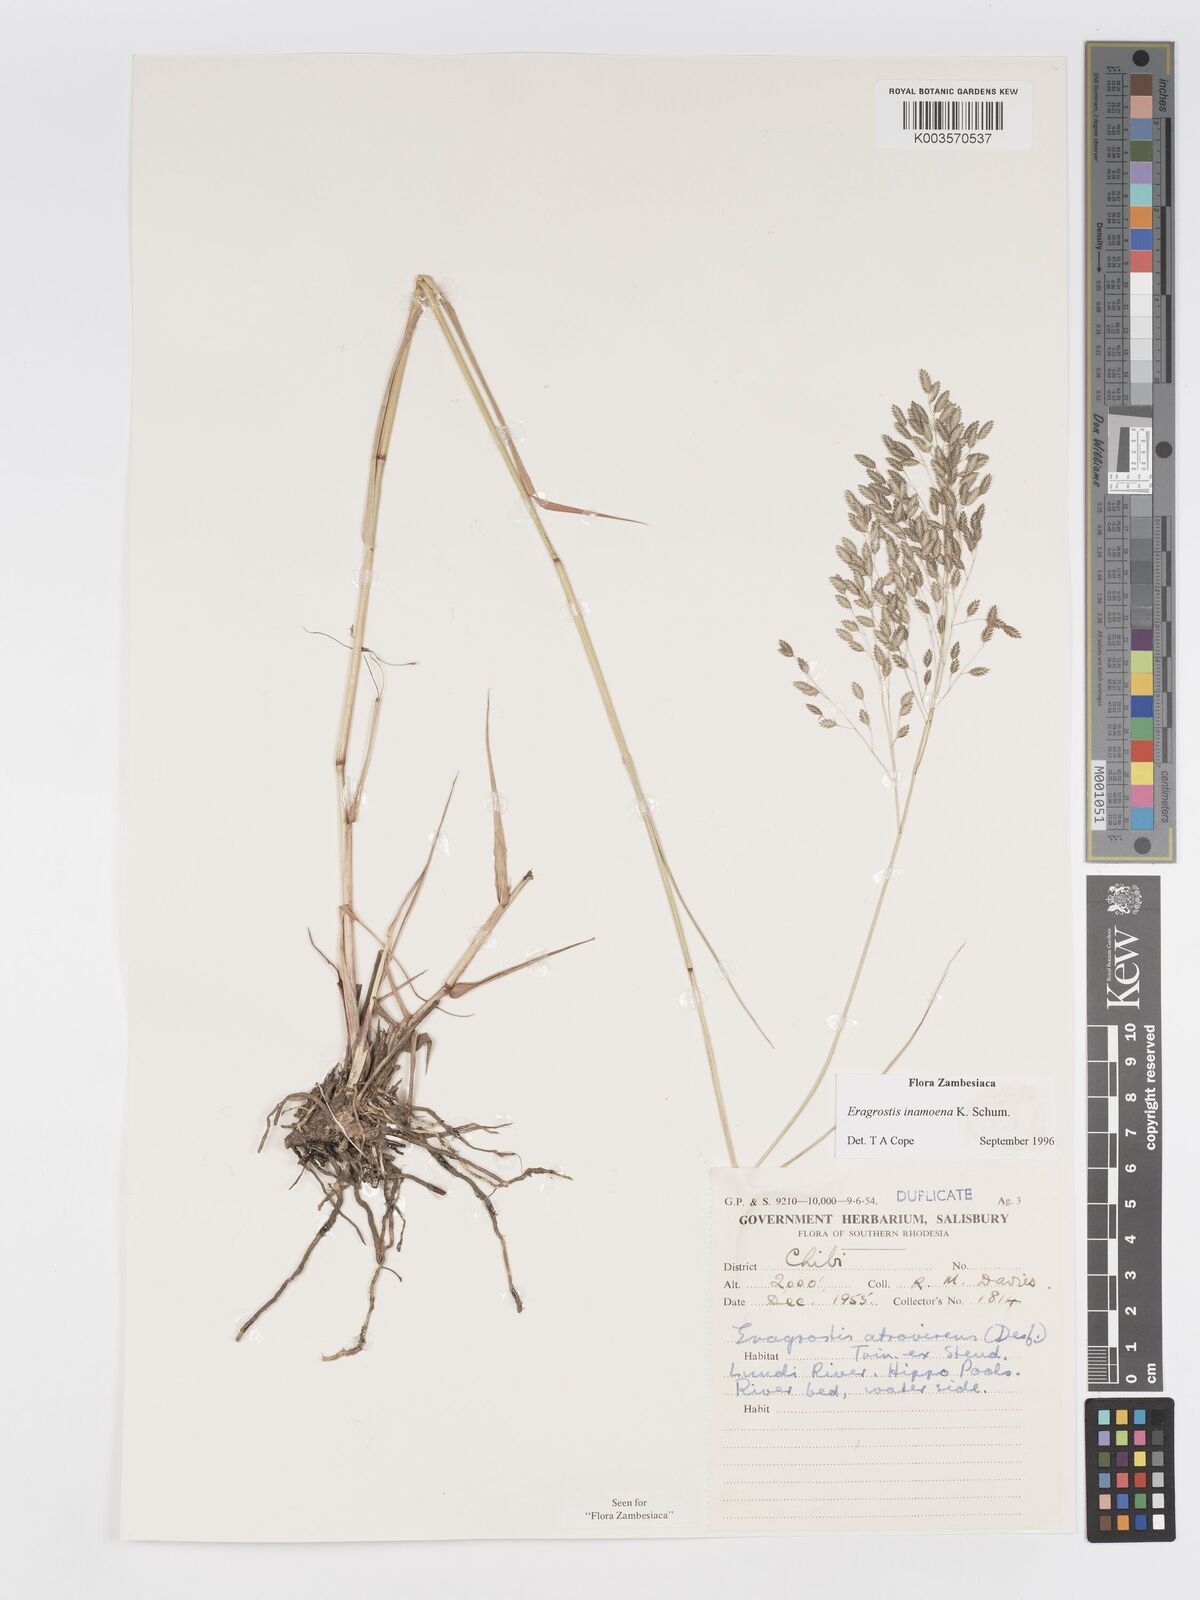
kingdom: Plantae
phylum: Tracheophyta
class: Liliopsida
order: Poales
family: Poaceae
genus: Eragrostis
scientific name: Eragrostis inamoena
